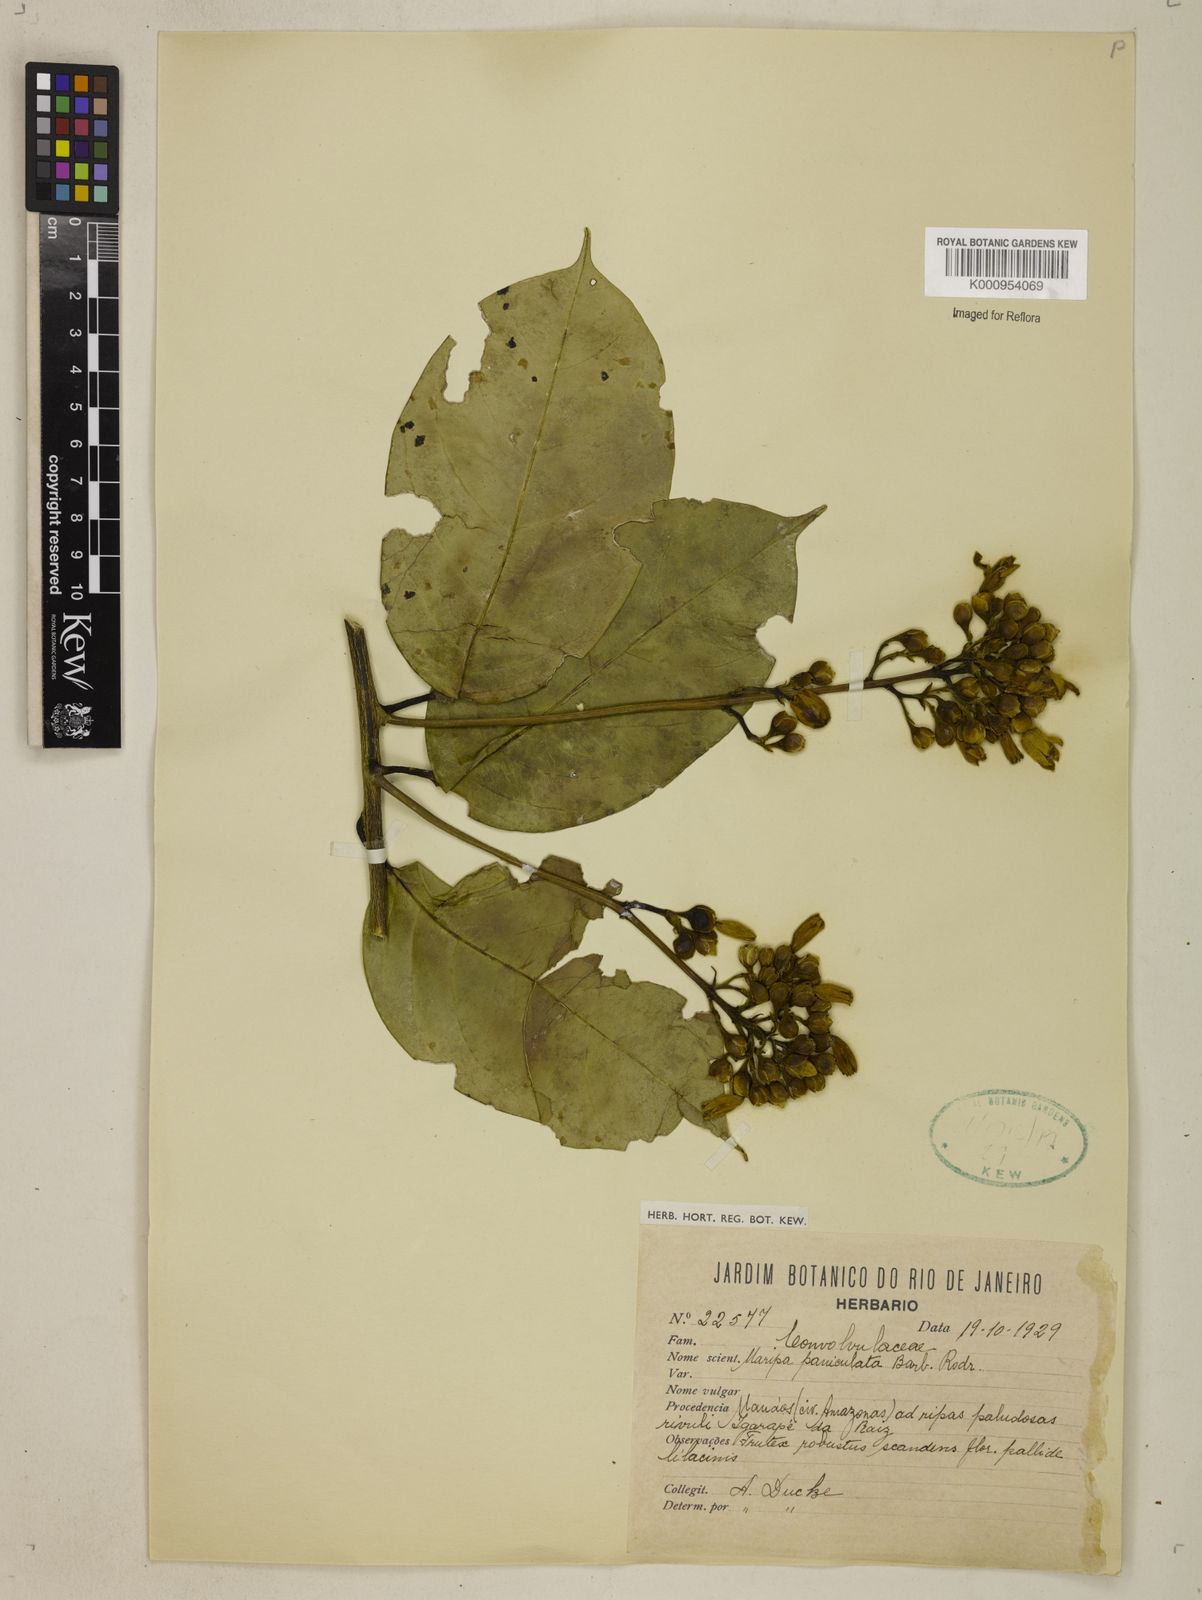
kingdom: Plantae
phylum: Tracheophyta
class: Magnoliopsida
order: Solanales
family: Convolvulaceae
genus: Maripa
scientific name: Maripa paniculata
